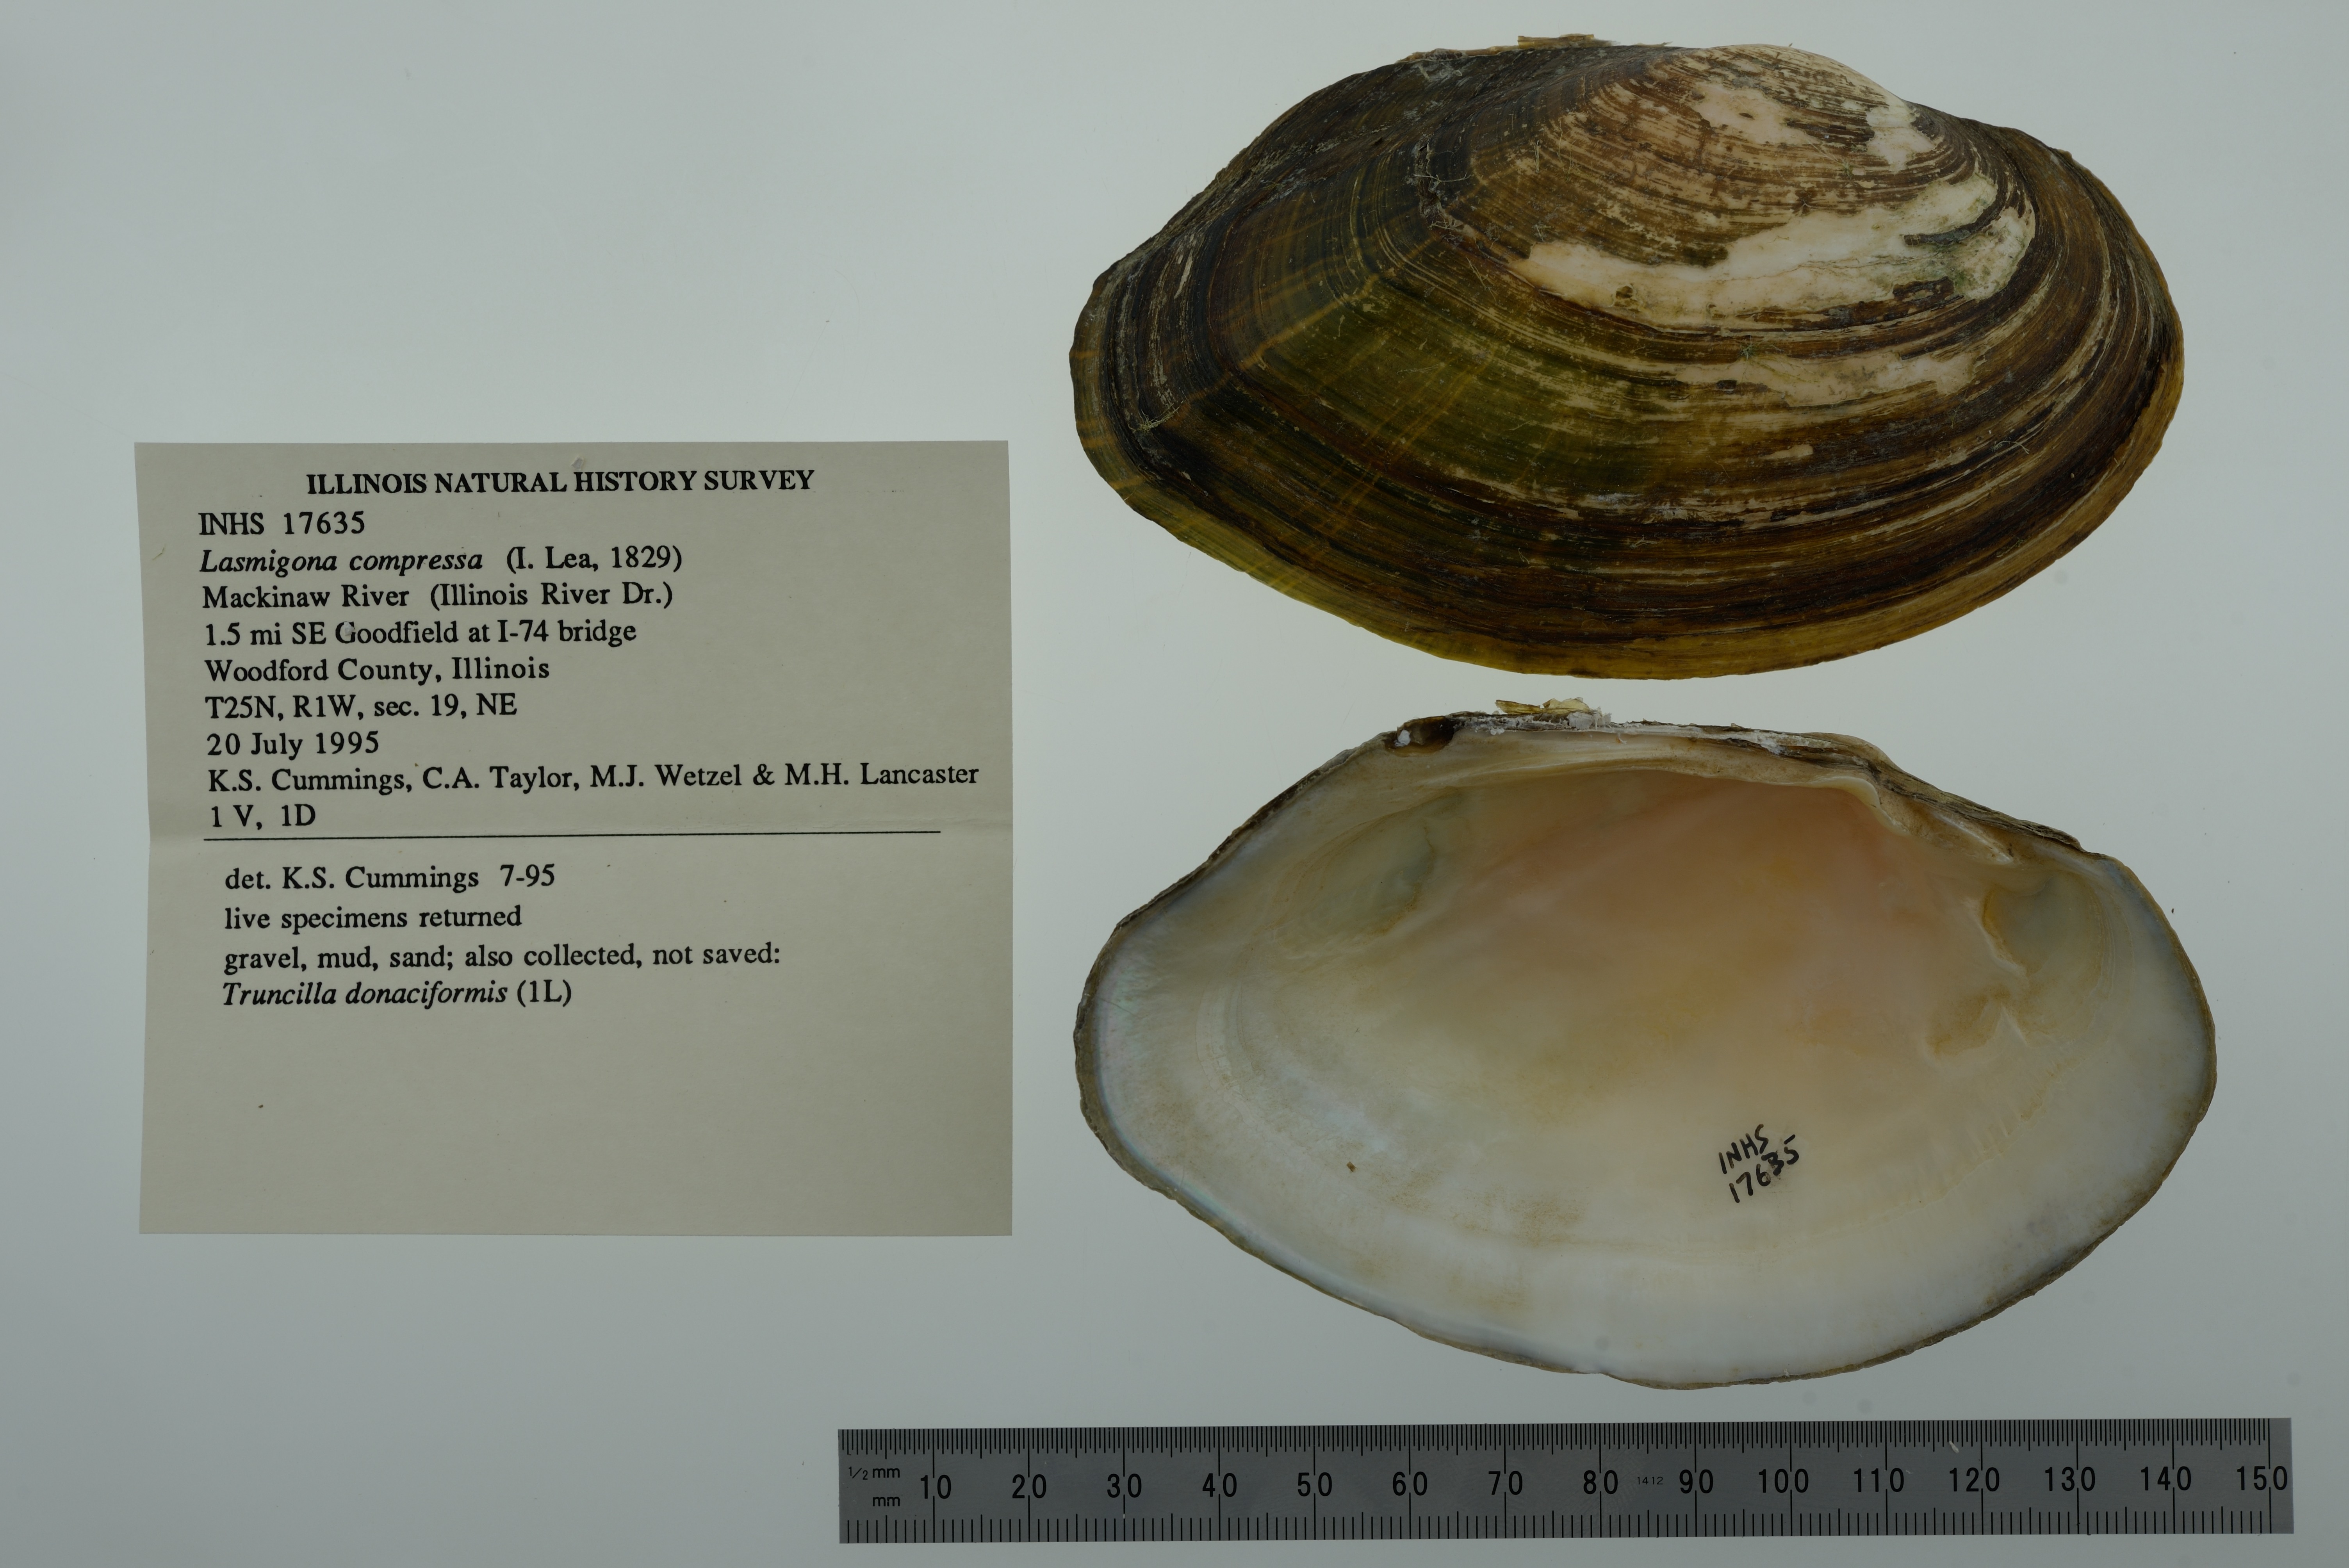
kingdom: Animalia
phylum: Mollusca
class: Bivalvia
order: Unionida
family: Unionidae
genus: Lasmigona
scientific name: Lasmigona compressa
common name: Creek heelsplitter
